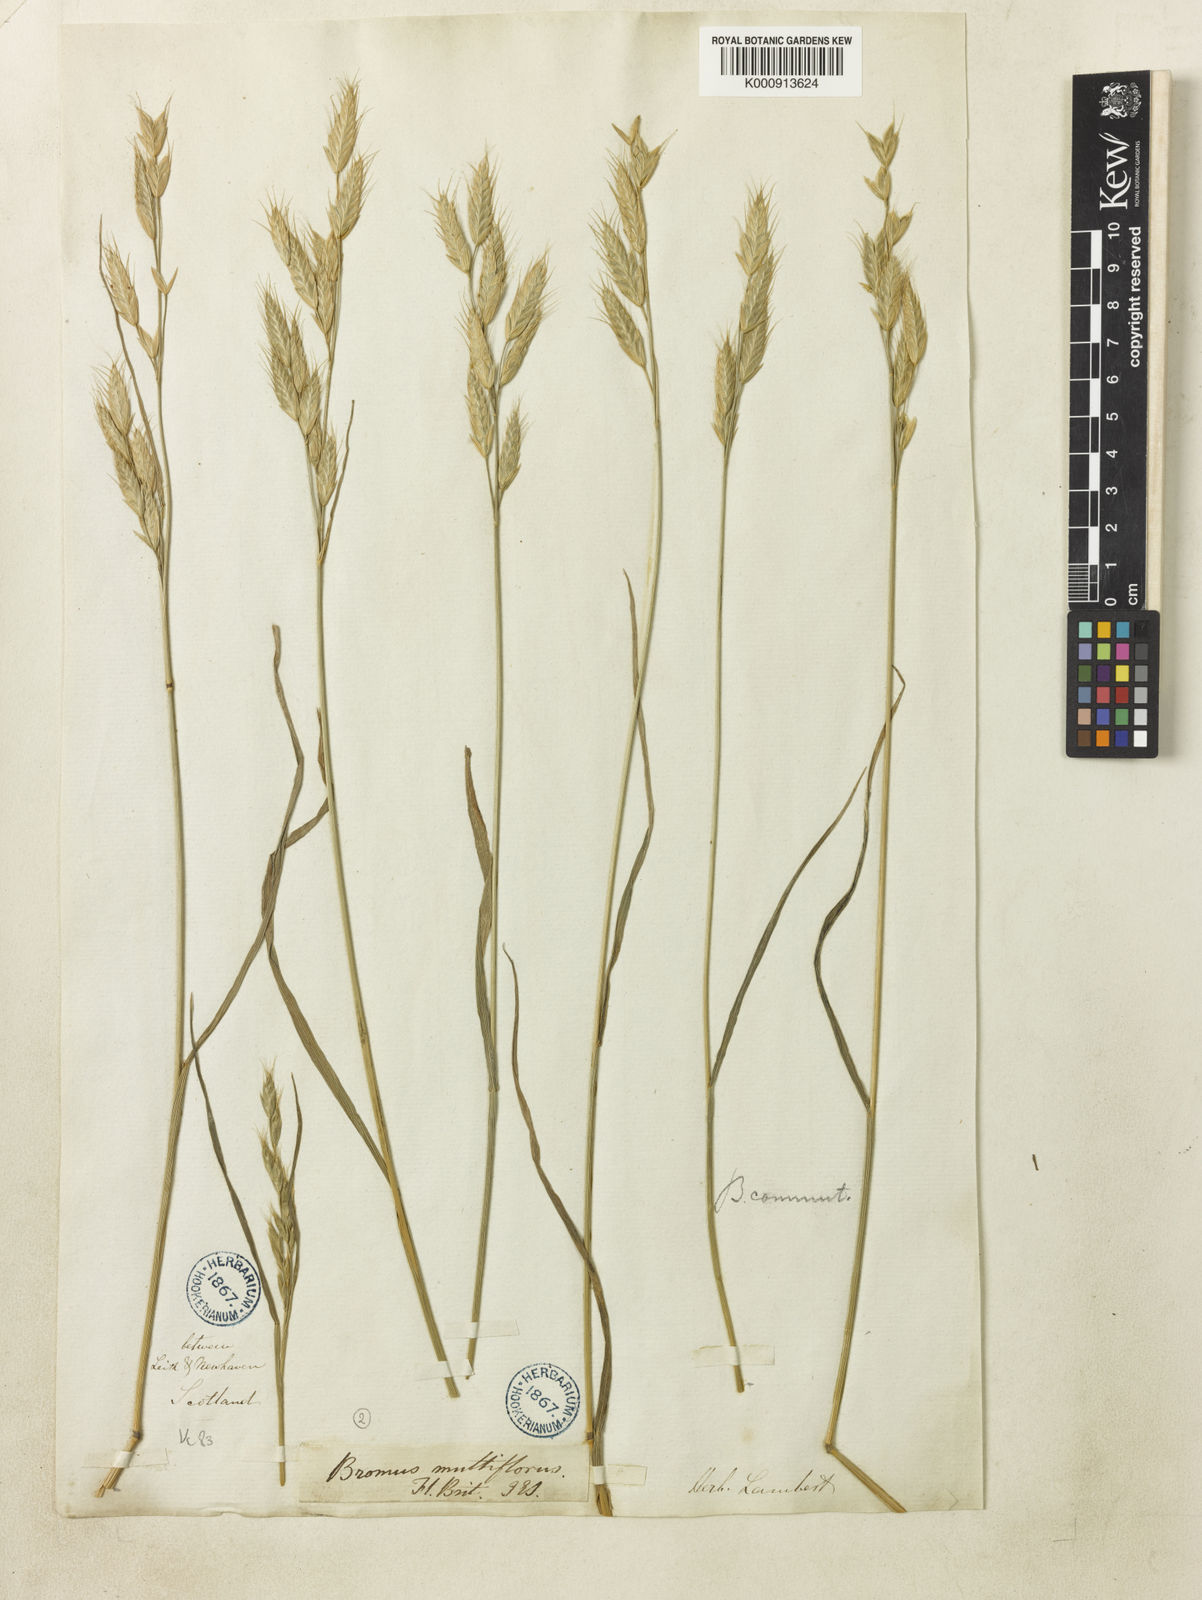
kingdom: Plantae
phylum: Tracheophyta
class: Liliopsida
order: Poales
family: Poaceae
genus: Bromus
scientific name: Bromus commutatus
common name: Meadow brome
